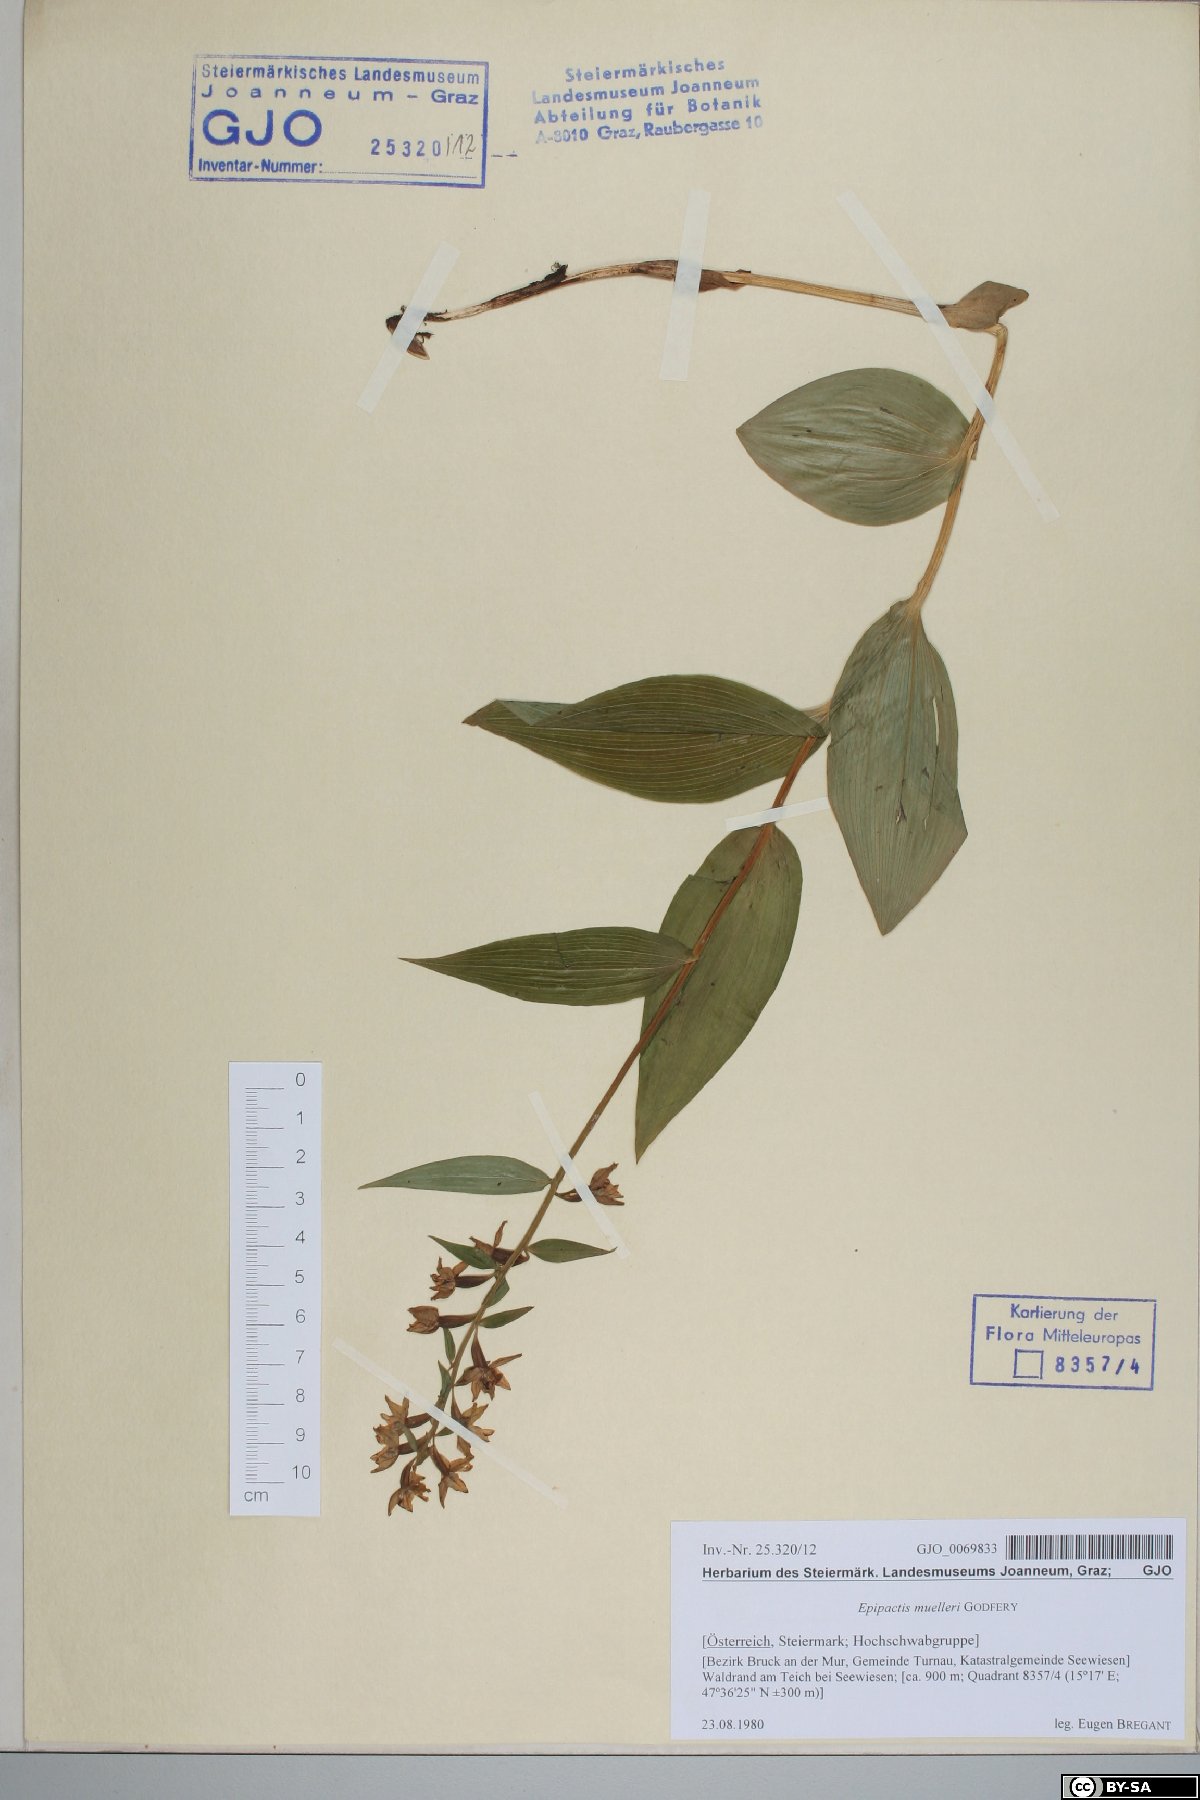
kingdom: Plantae
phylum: Tracheophyta
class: Liliopsida
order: Asparagales
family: Orchidaceae
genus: Epipactis
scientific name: Epipactis muelleri
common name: Mueller's epipactis
